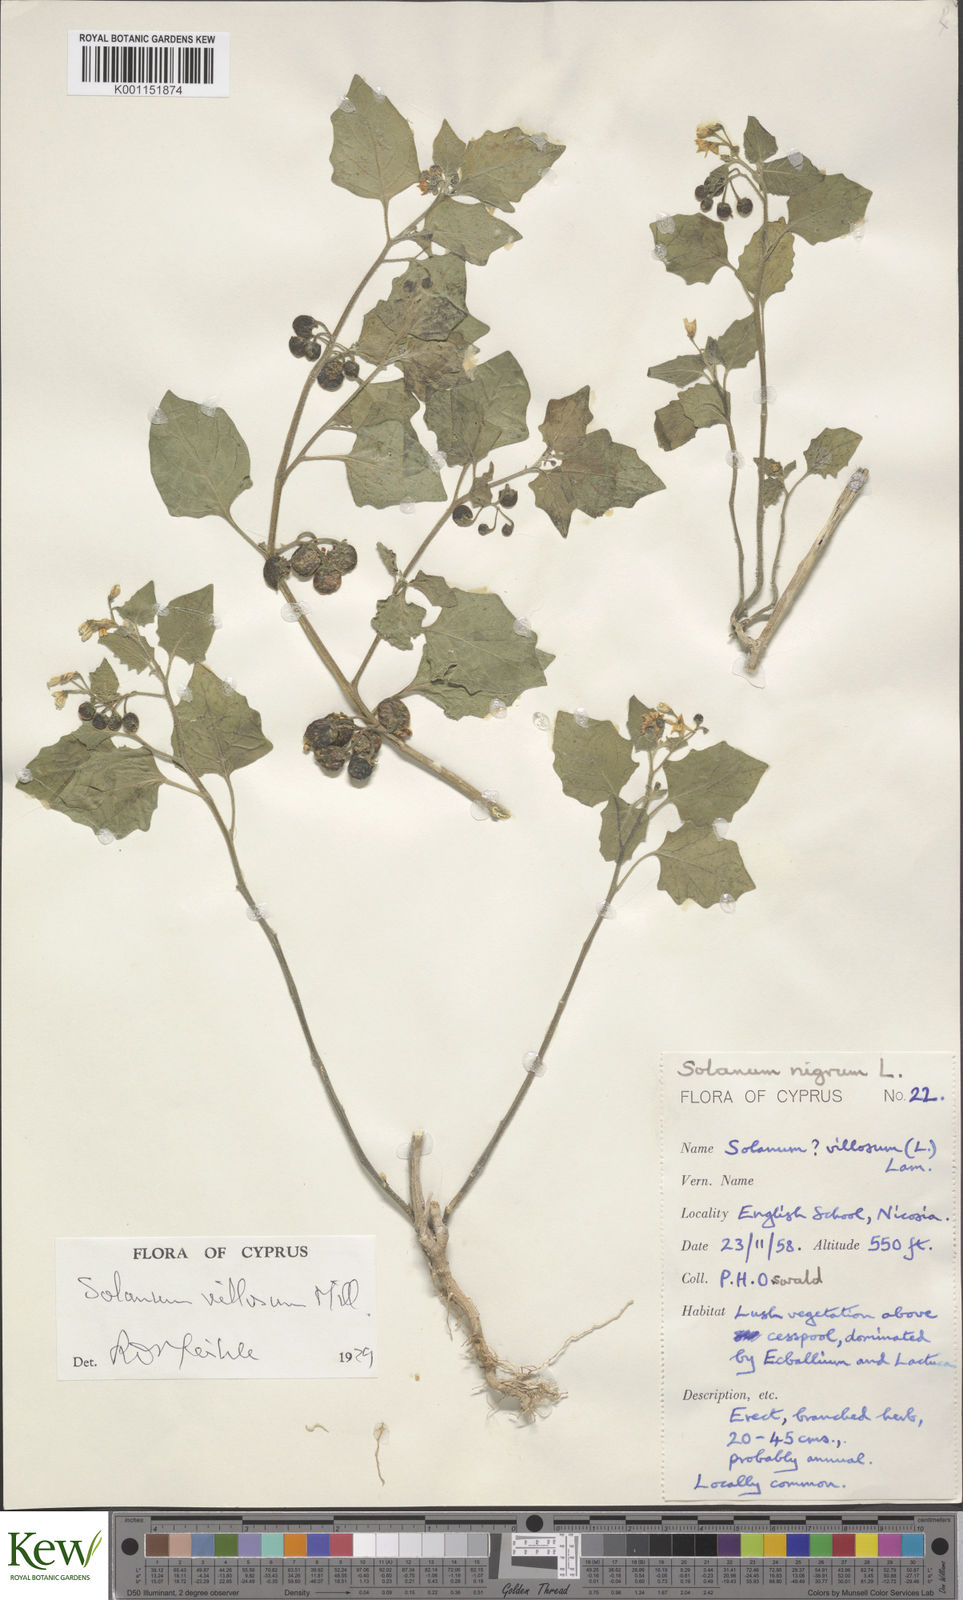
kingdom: Plantae
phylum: Tracheophyta
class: Magnoliopsida
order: Solanales
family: Solanaceae
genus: Solanum
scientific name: Solanum villosum
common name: Red nightshade
